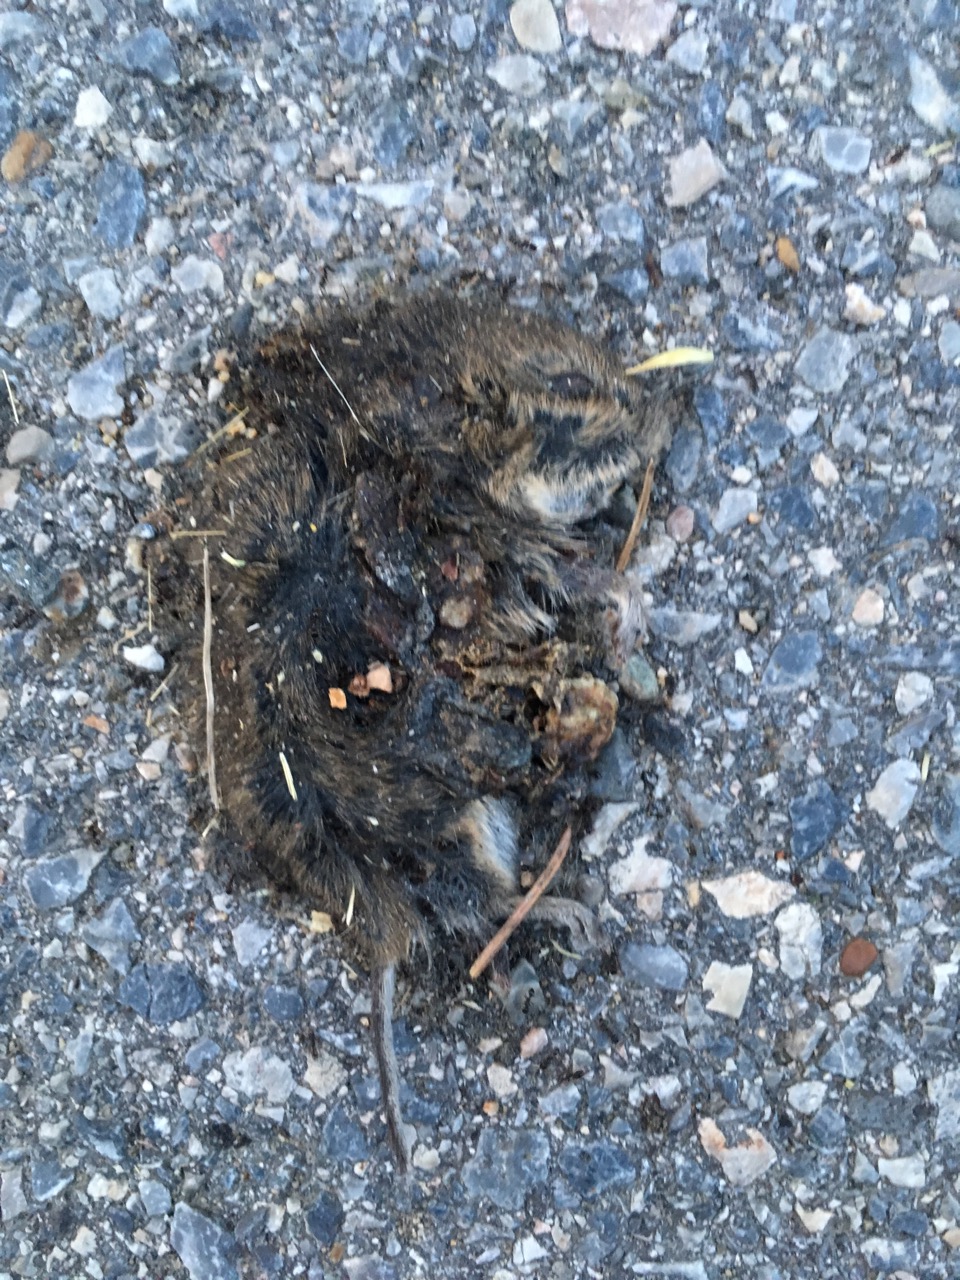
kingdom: Animalia
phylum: Chordata
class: Mammalia
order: Rodentia
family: Cricetidae
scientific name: Cricetidae
